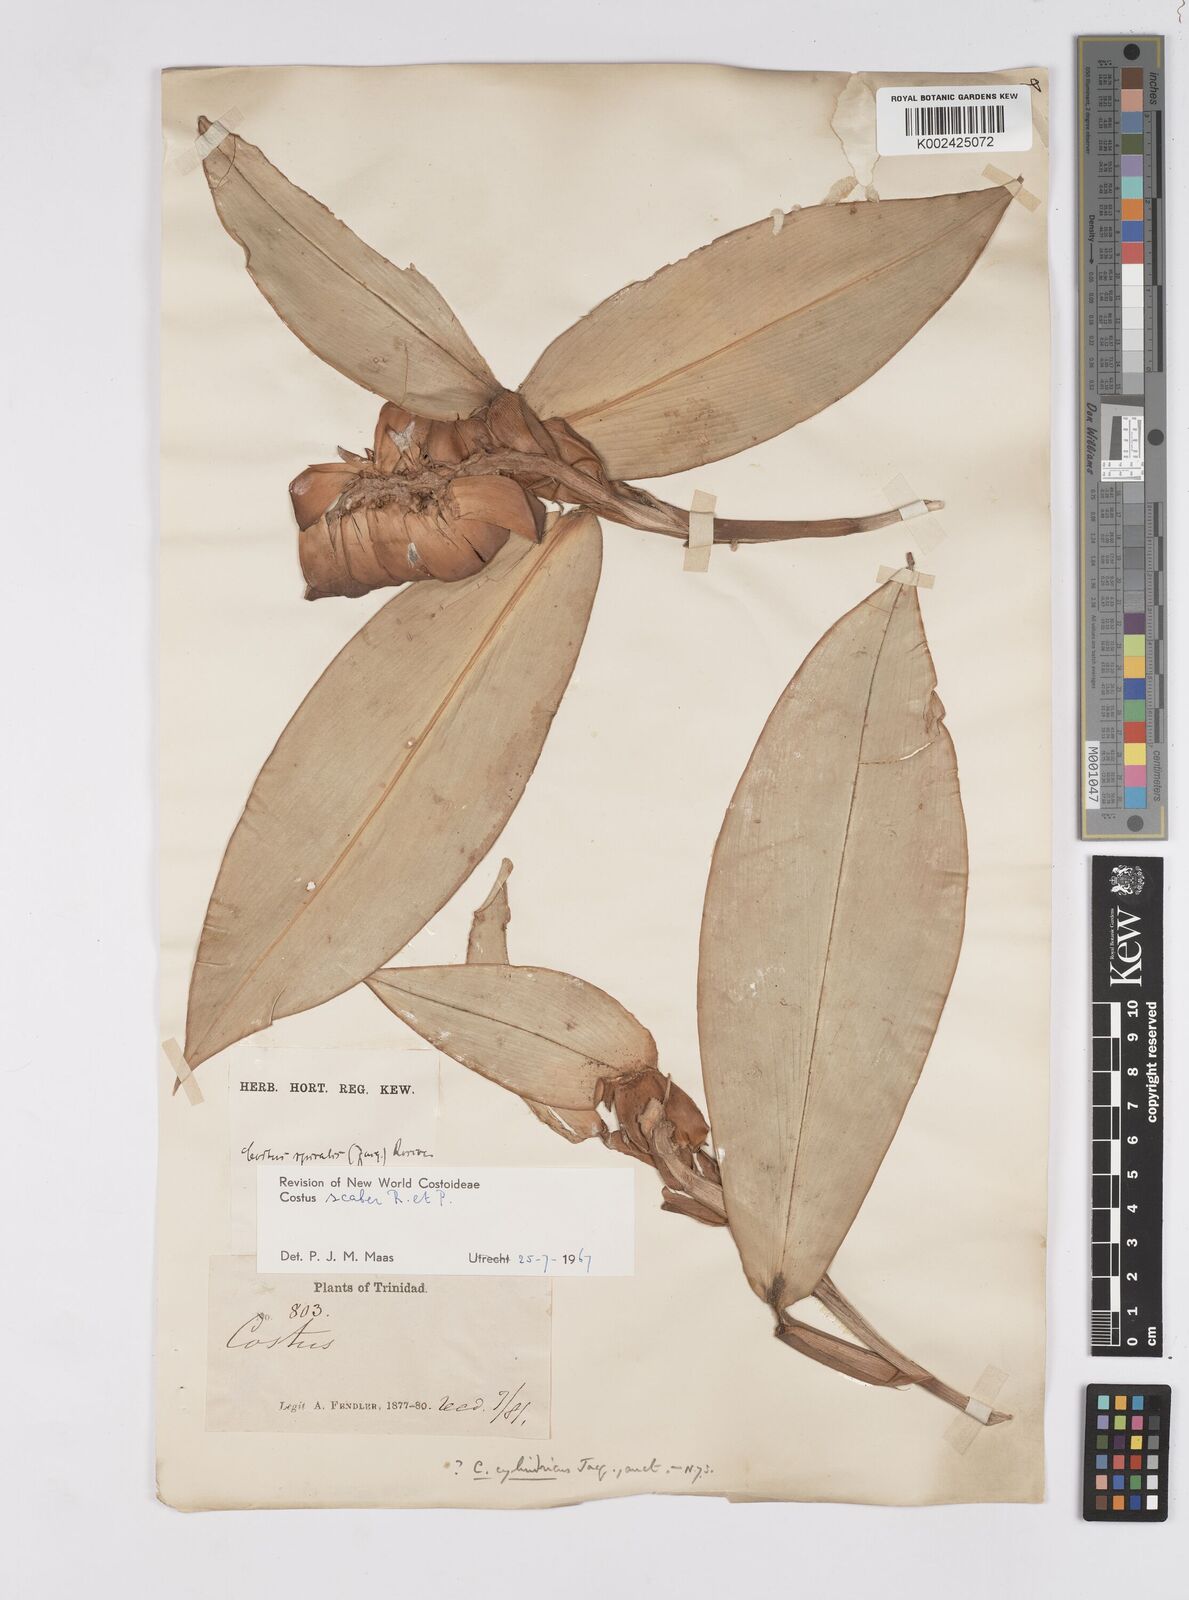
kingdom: Plantae
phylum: Tracheophyta
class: Liliopsida
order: Zingiberales
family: Costaceae
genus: Costus
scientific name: Costus scaber
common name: Spiral head ginger
